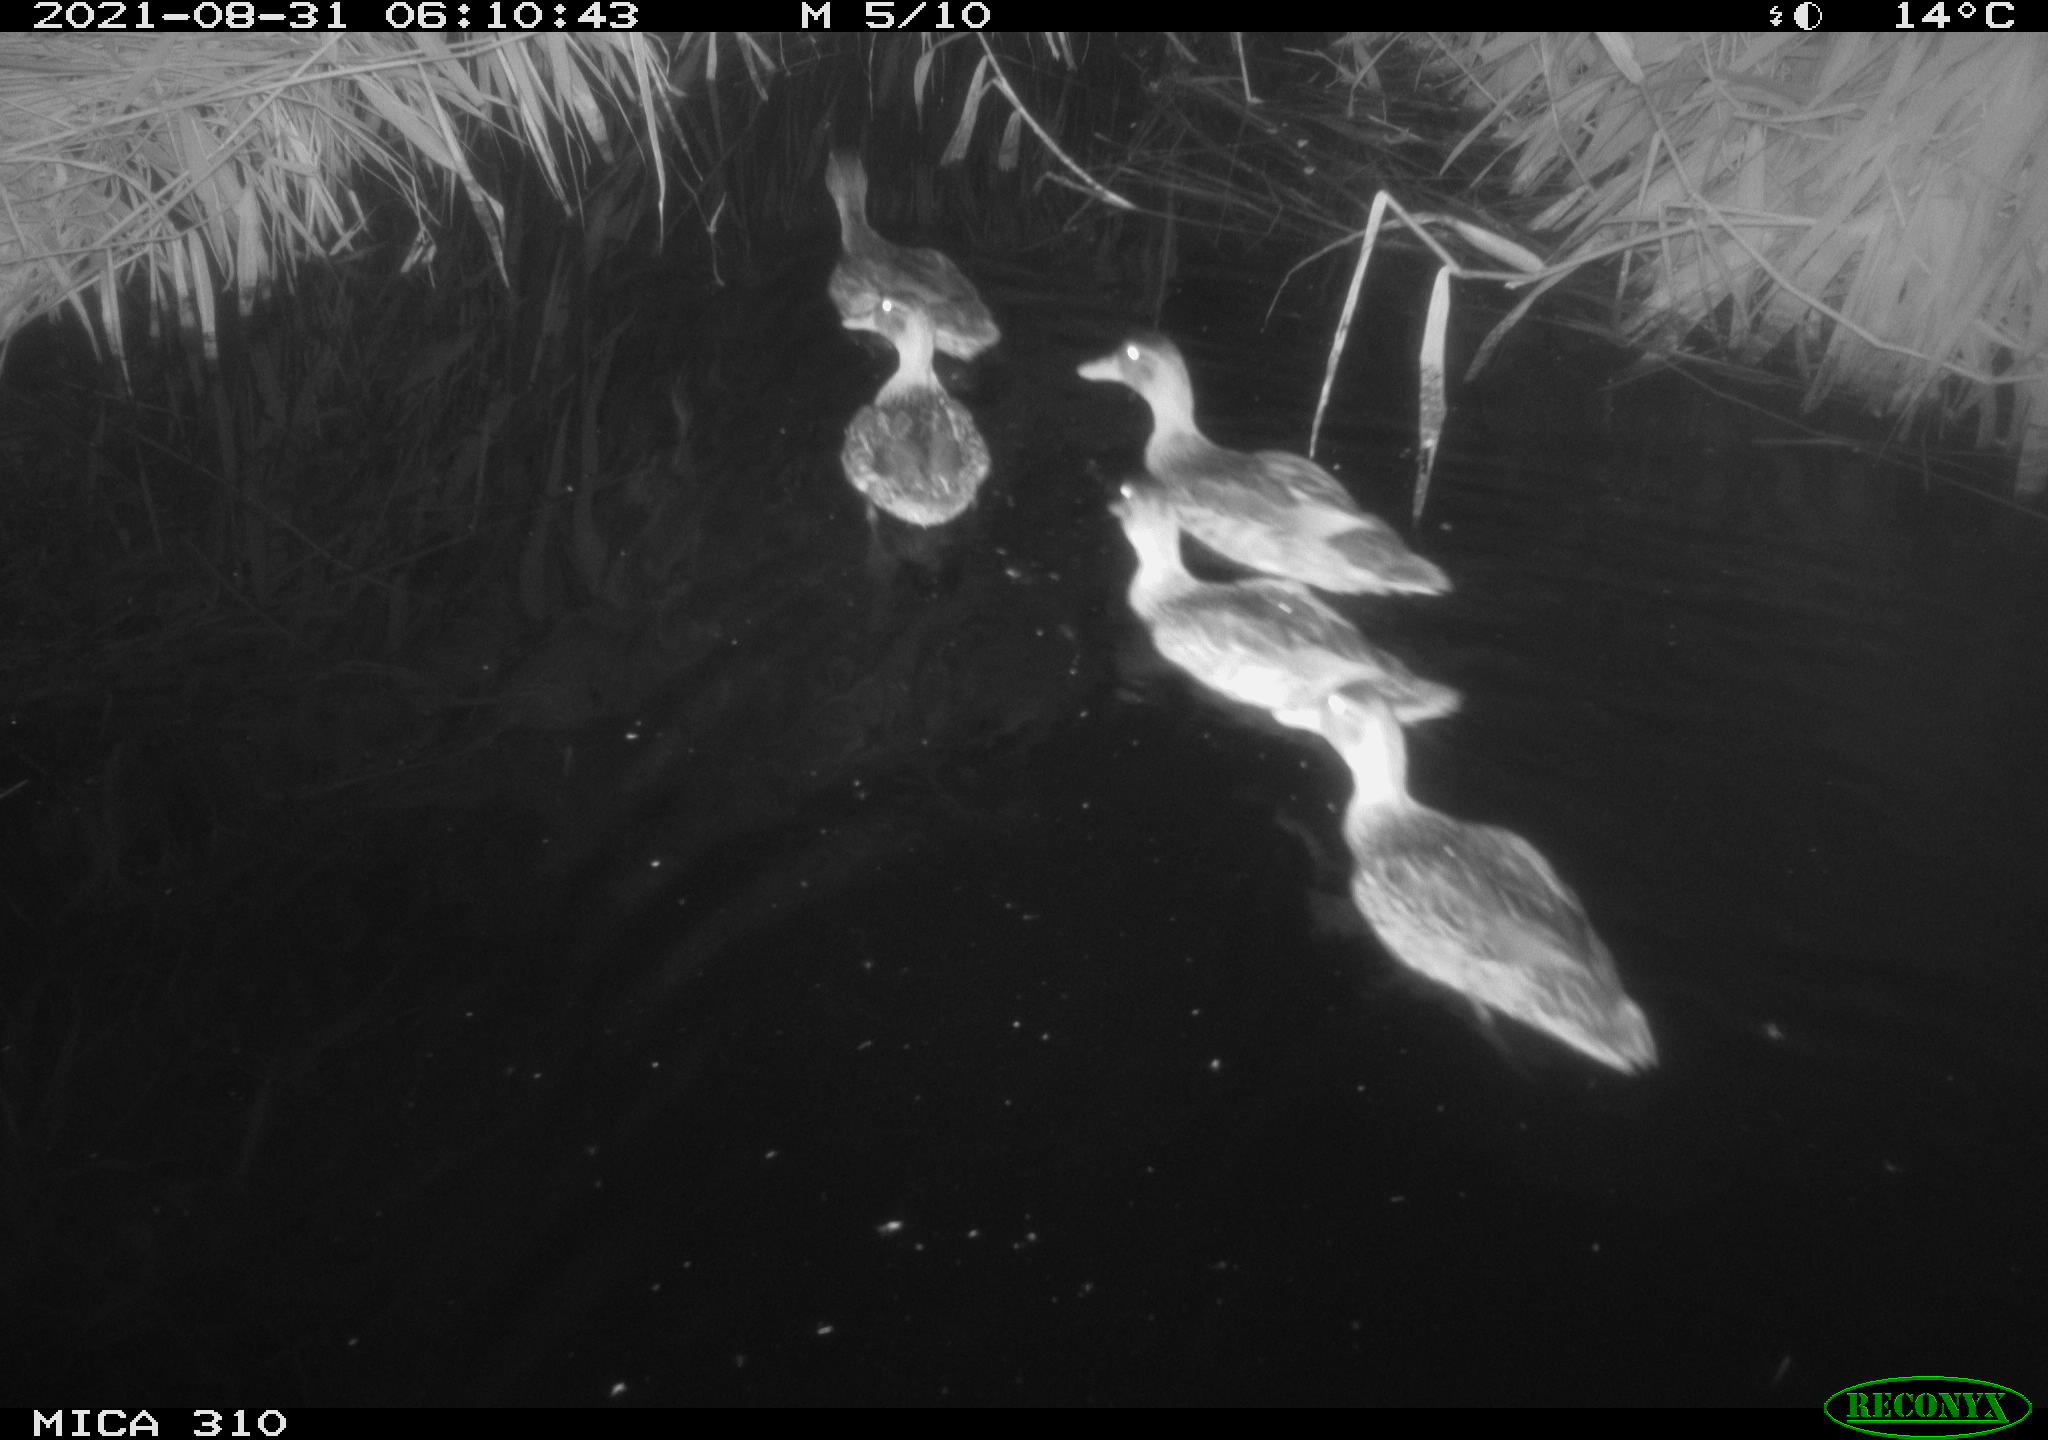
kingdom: Animalia
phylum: Chordata
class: Aves
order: Anseriformes
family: Anatidae
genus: Anas
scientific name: Anas platyrhynchos
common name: Mallard
